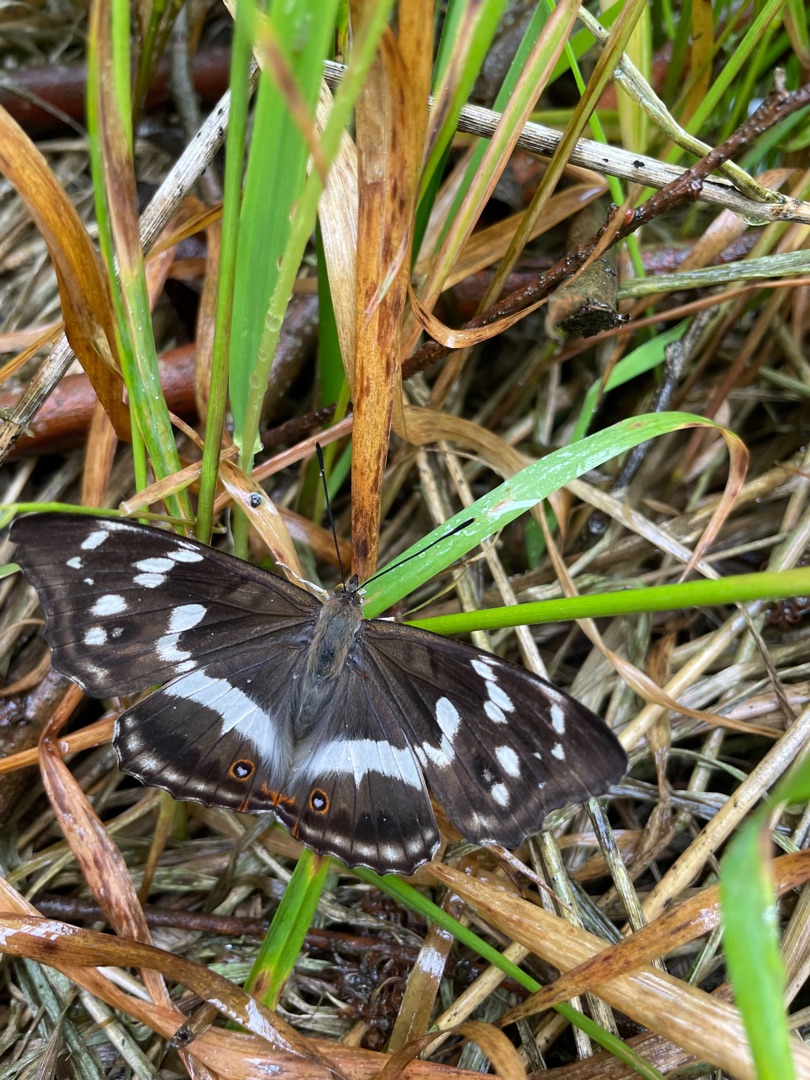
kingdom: Animalia
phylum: Arthropoda
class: Insecta
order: Lepidoptera
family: Nymphalidae
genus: Apatura
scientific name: Apatura iris
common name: Iris
